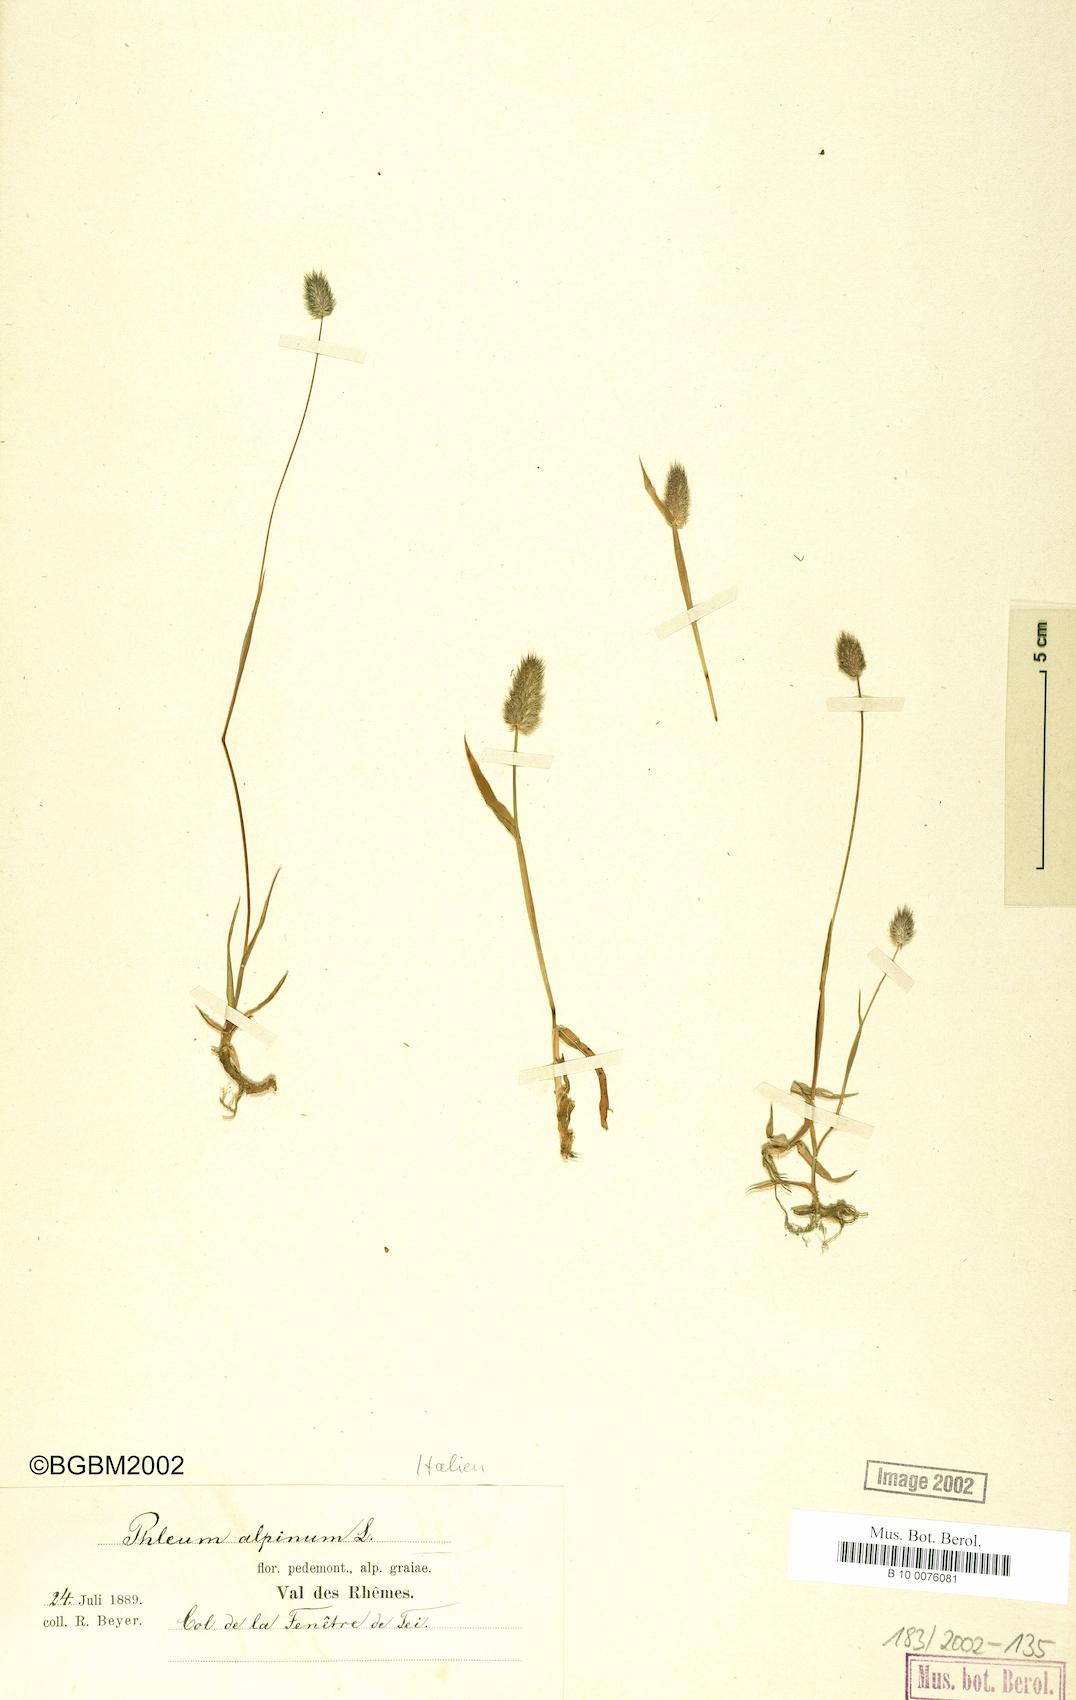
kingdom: Plantae
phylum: Tracheophyta
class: Liliopsida
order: Poales
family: Poaceae
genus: Phleum
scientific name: Phleum alpinum
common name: Alpine cat's-tail
